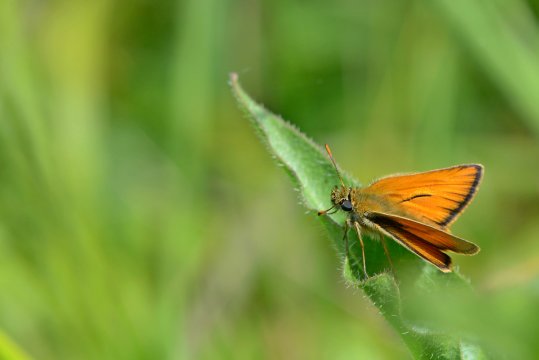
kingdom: Animalia
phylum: Arthropoda
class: Insecta
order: Lepidoptera
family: Hesperiidae
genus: Thymelicus
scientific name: Thymelicus sylvestris
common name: Small Skipper
